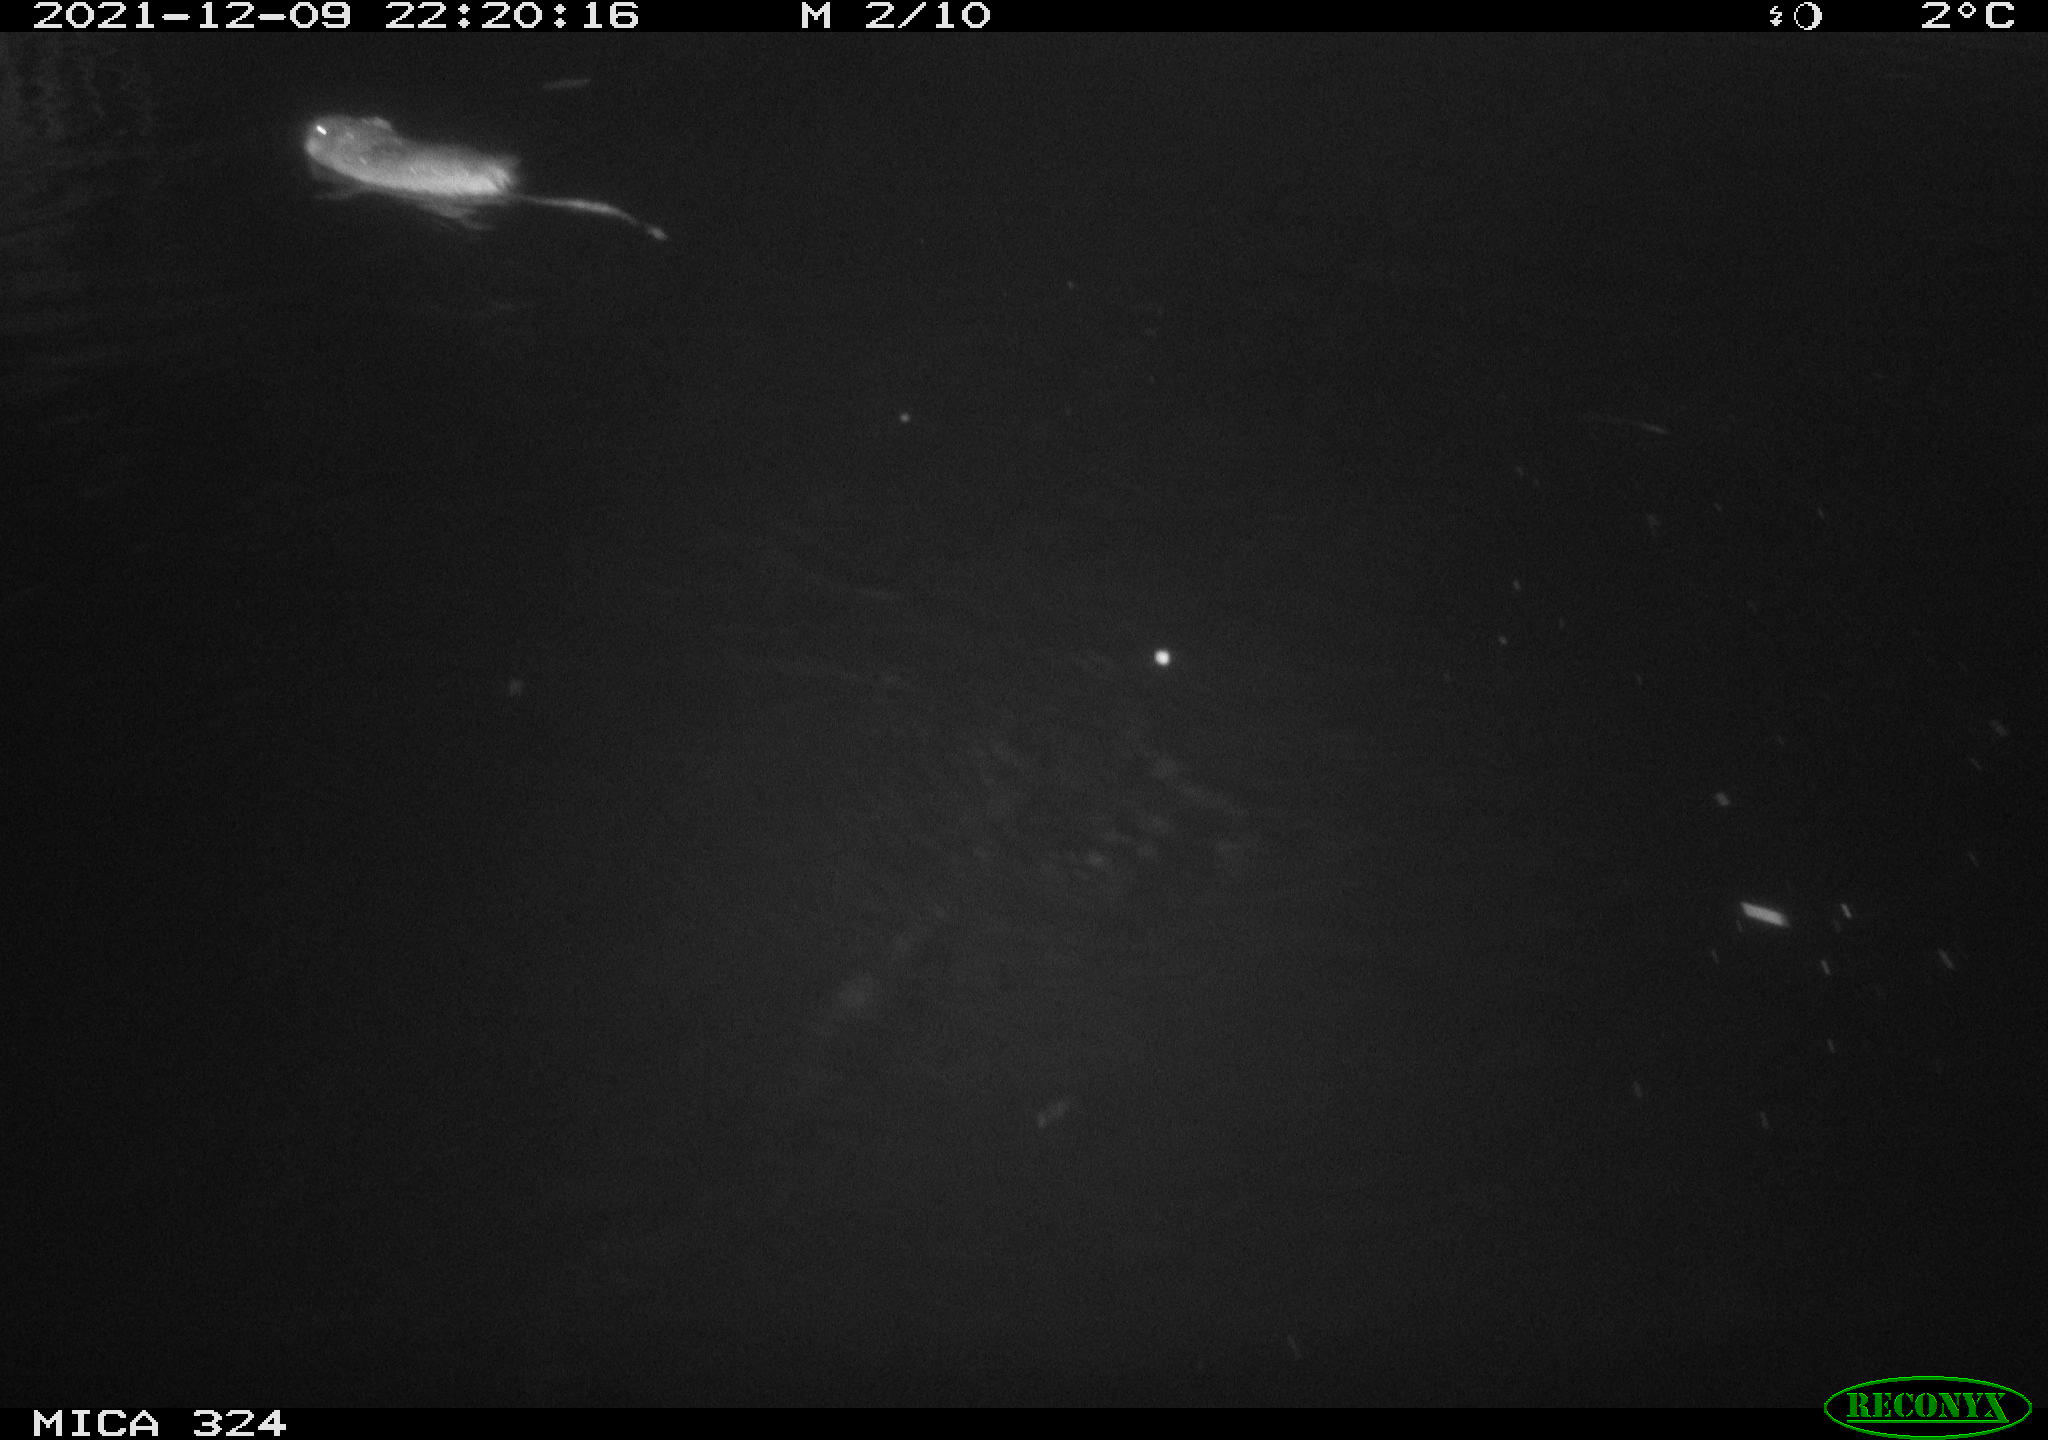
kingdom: Animalia
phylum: Chordata
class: Mammalia
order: Rodentia
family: Cricetidae
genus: Ondatra
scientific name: Ondatra zibethicus
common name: Muskrat
